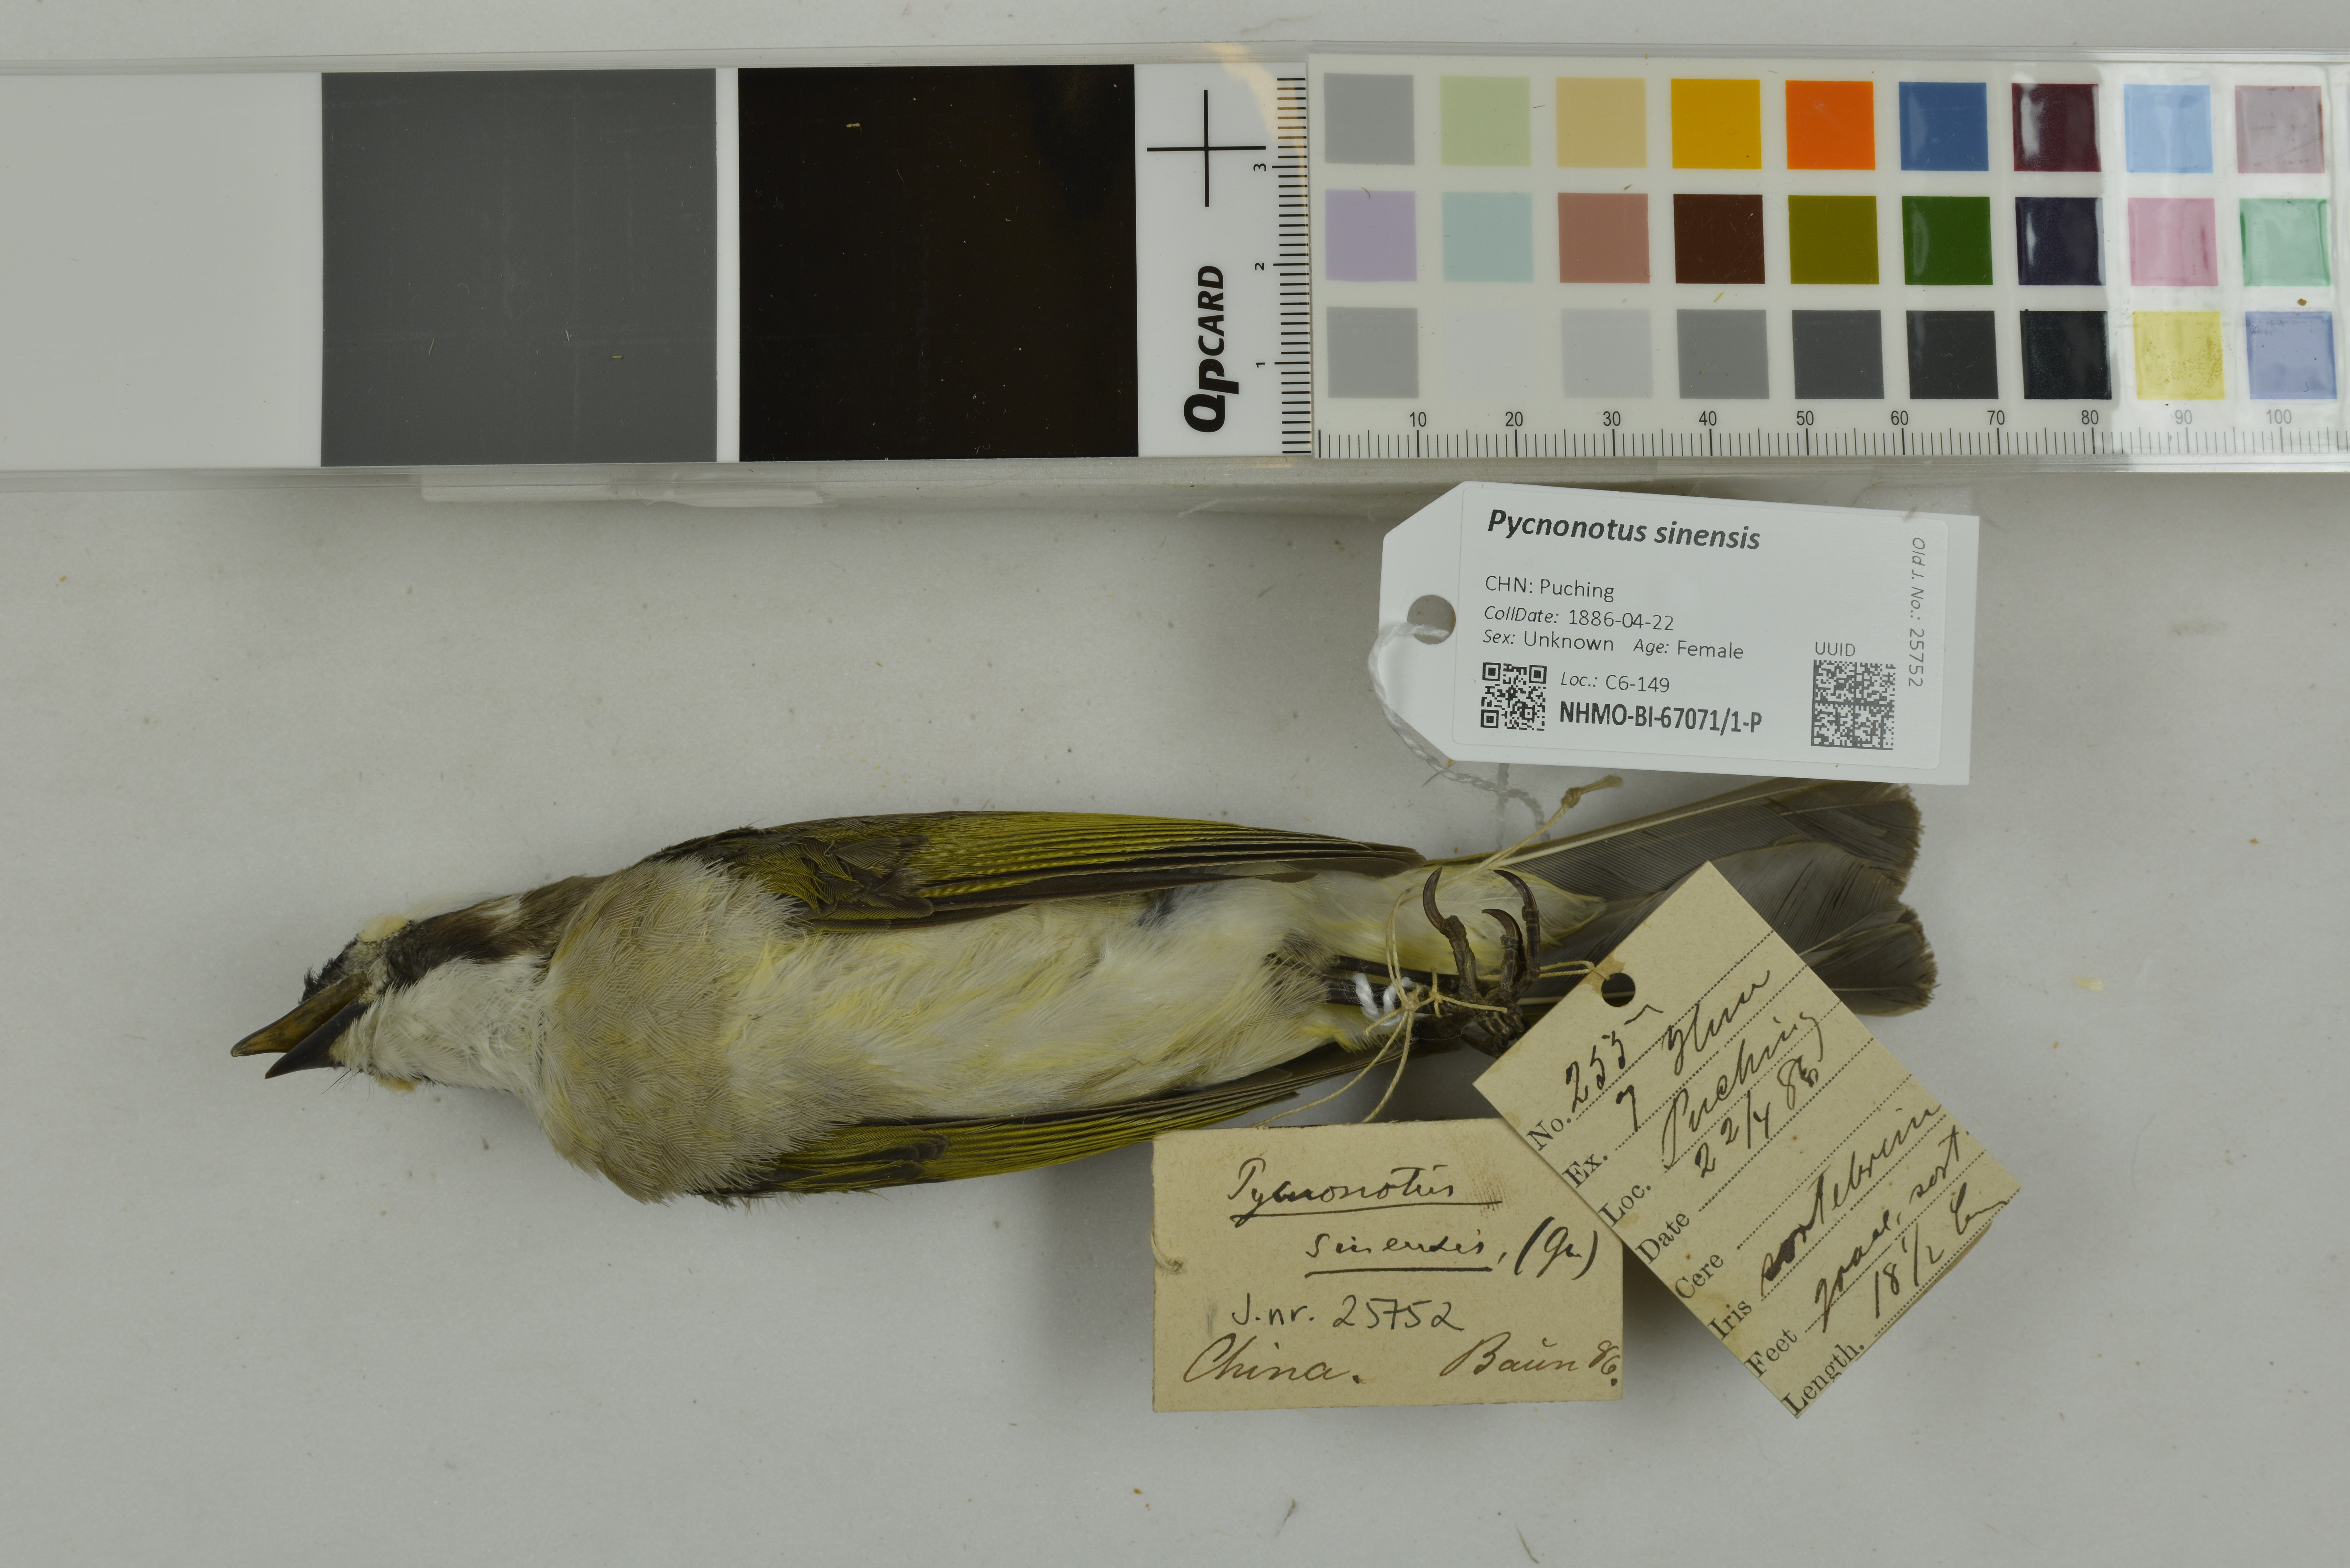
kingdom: Animalia
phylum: Chordata
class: Aves
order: Passeriformes
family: Pycnonotidae
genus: Pycnonotus
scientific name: Pycnonotus sinensis
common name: Light-vented bulbul
